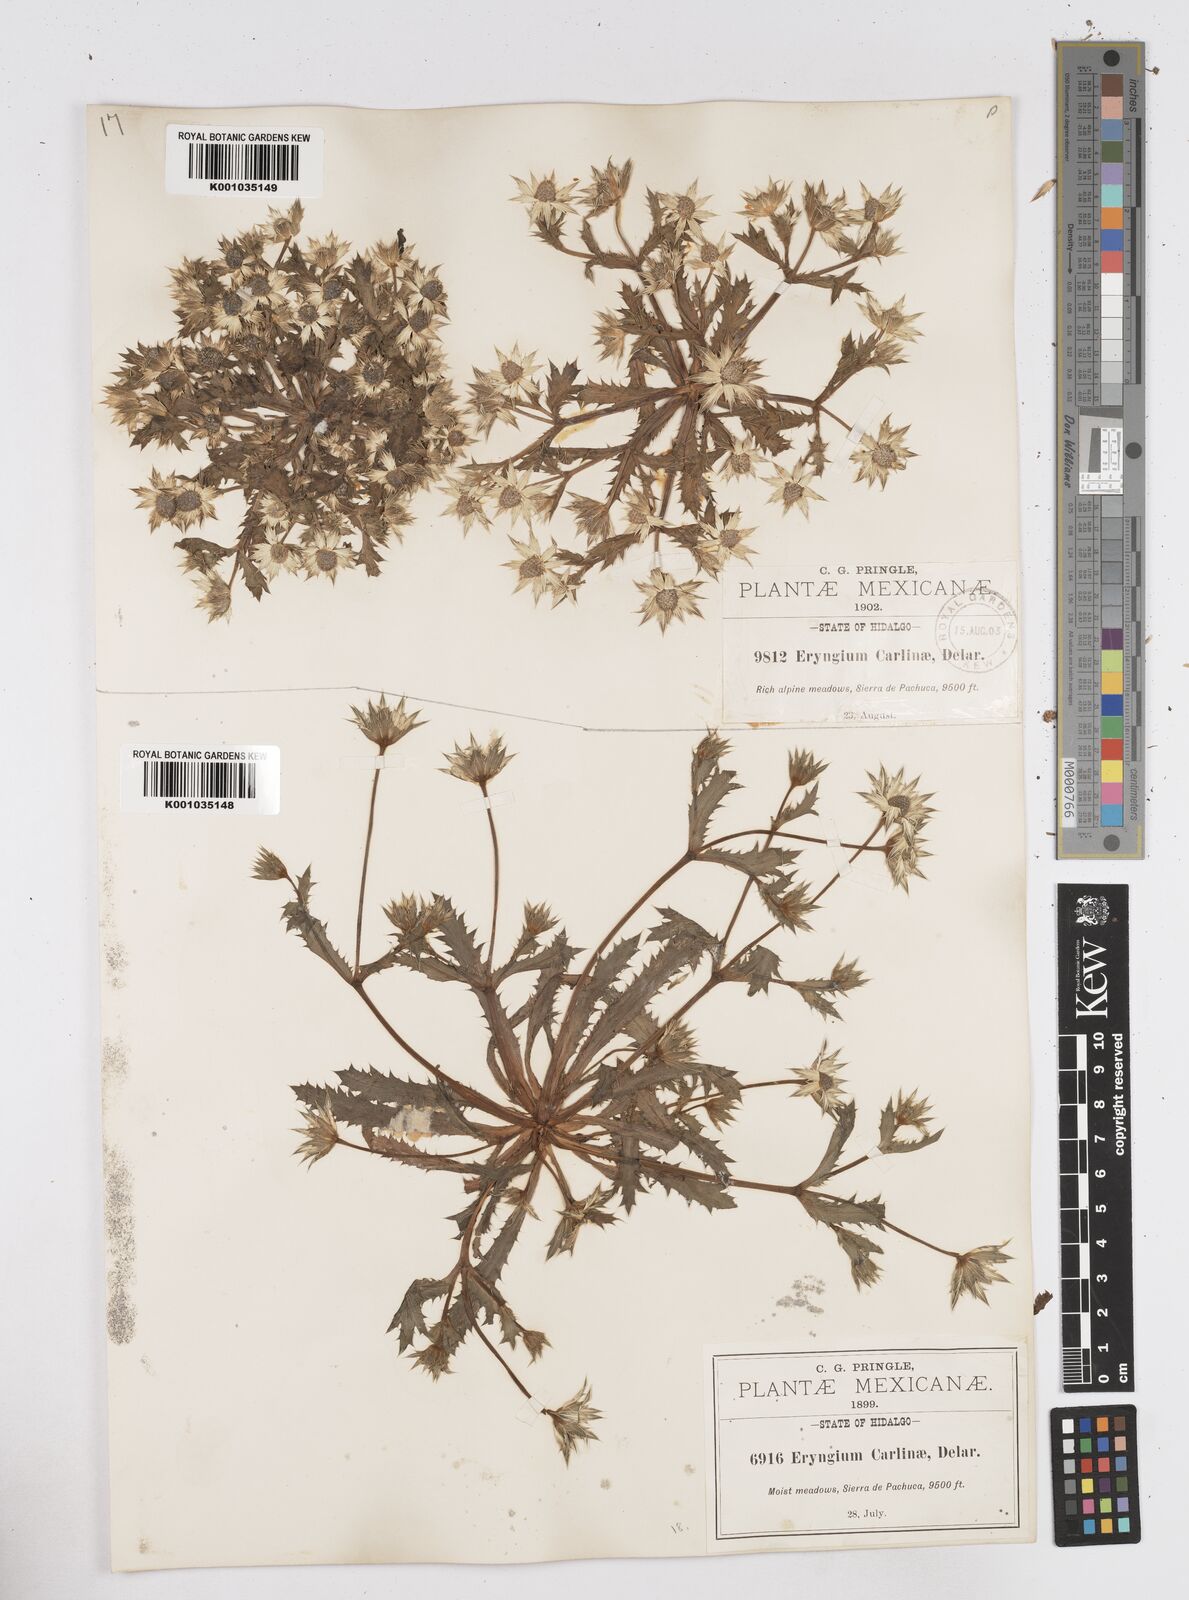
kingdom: Plantae
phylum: Tracheophyta
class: Magnoliopsida
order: Apiales
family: Apiaceae
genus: Eryngium
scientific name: Eryngium carlinae
